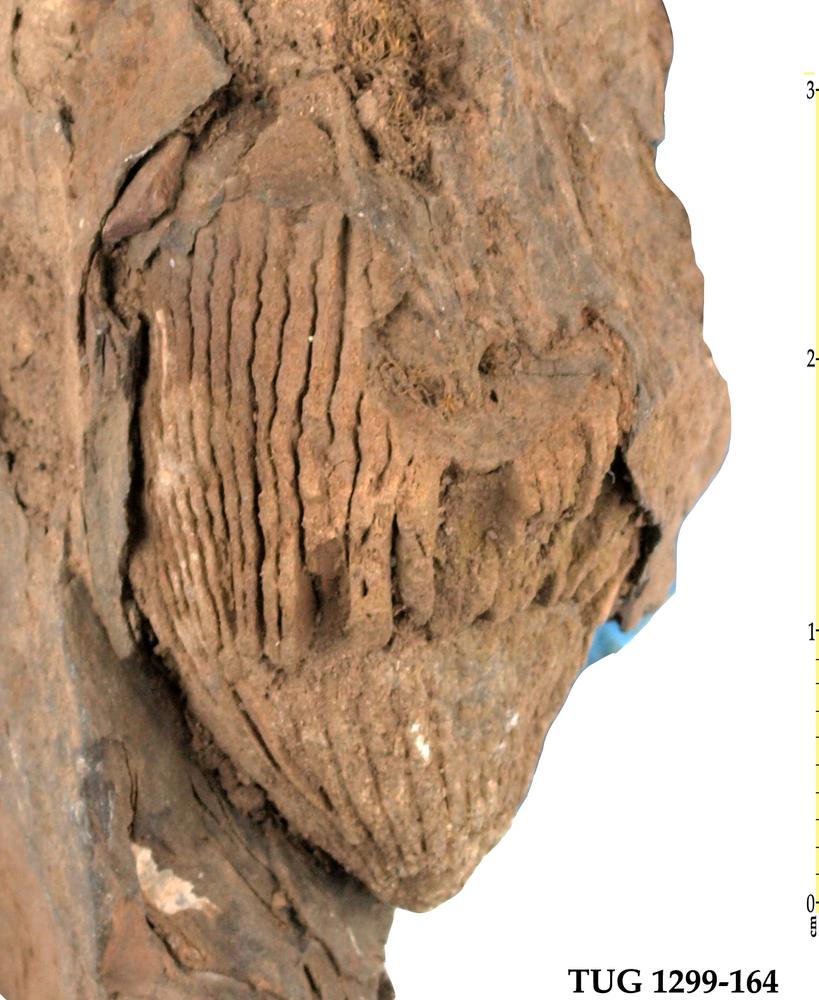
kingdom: Animalia
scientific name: Animalia
